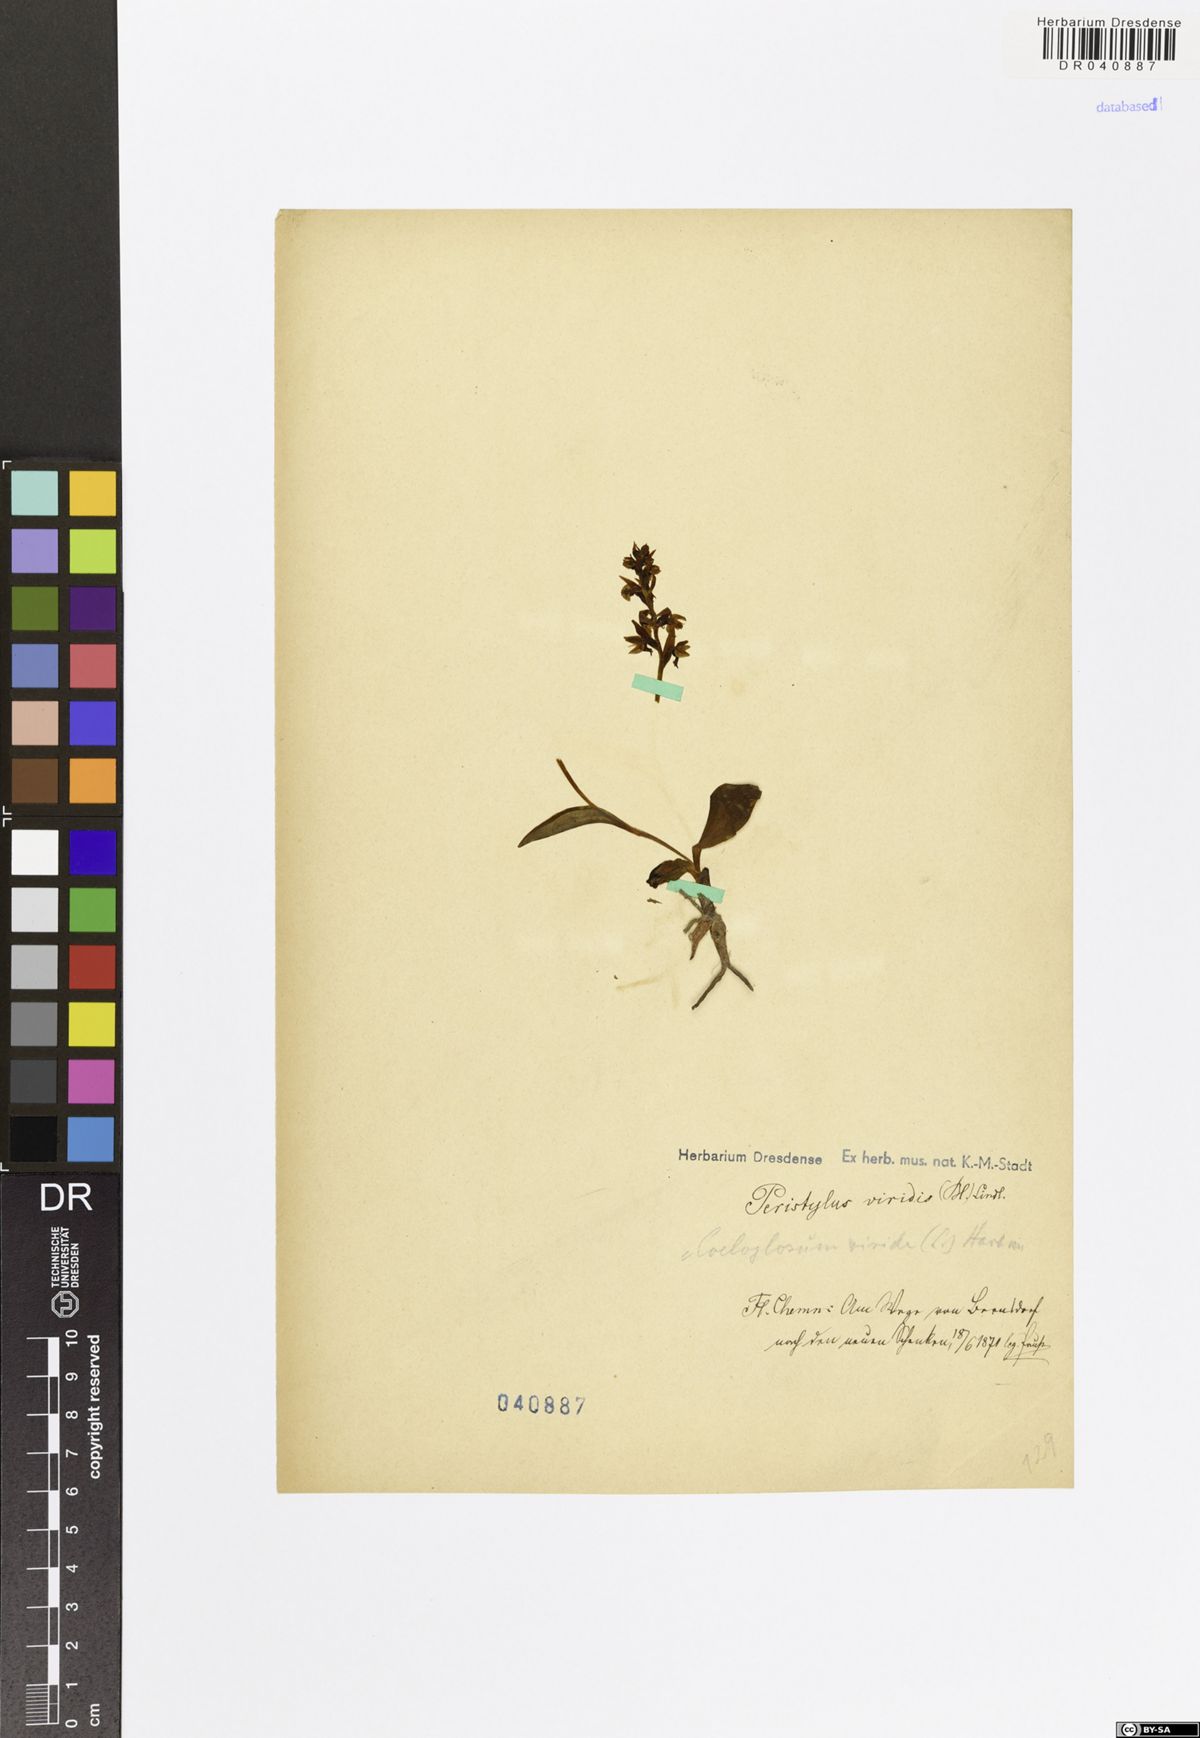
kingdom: Plantae
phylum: Tracheophyta
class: Liliopsida
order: Asparagales
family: Orchidaceae
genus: Dactylorhiza
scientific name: Dactylorhiza viridis
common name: Longbract frog orchid
